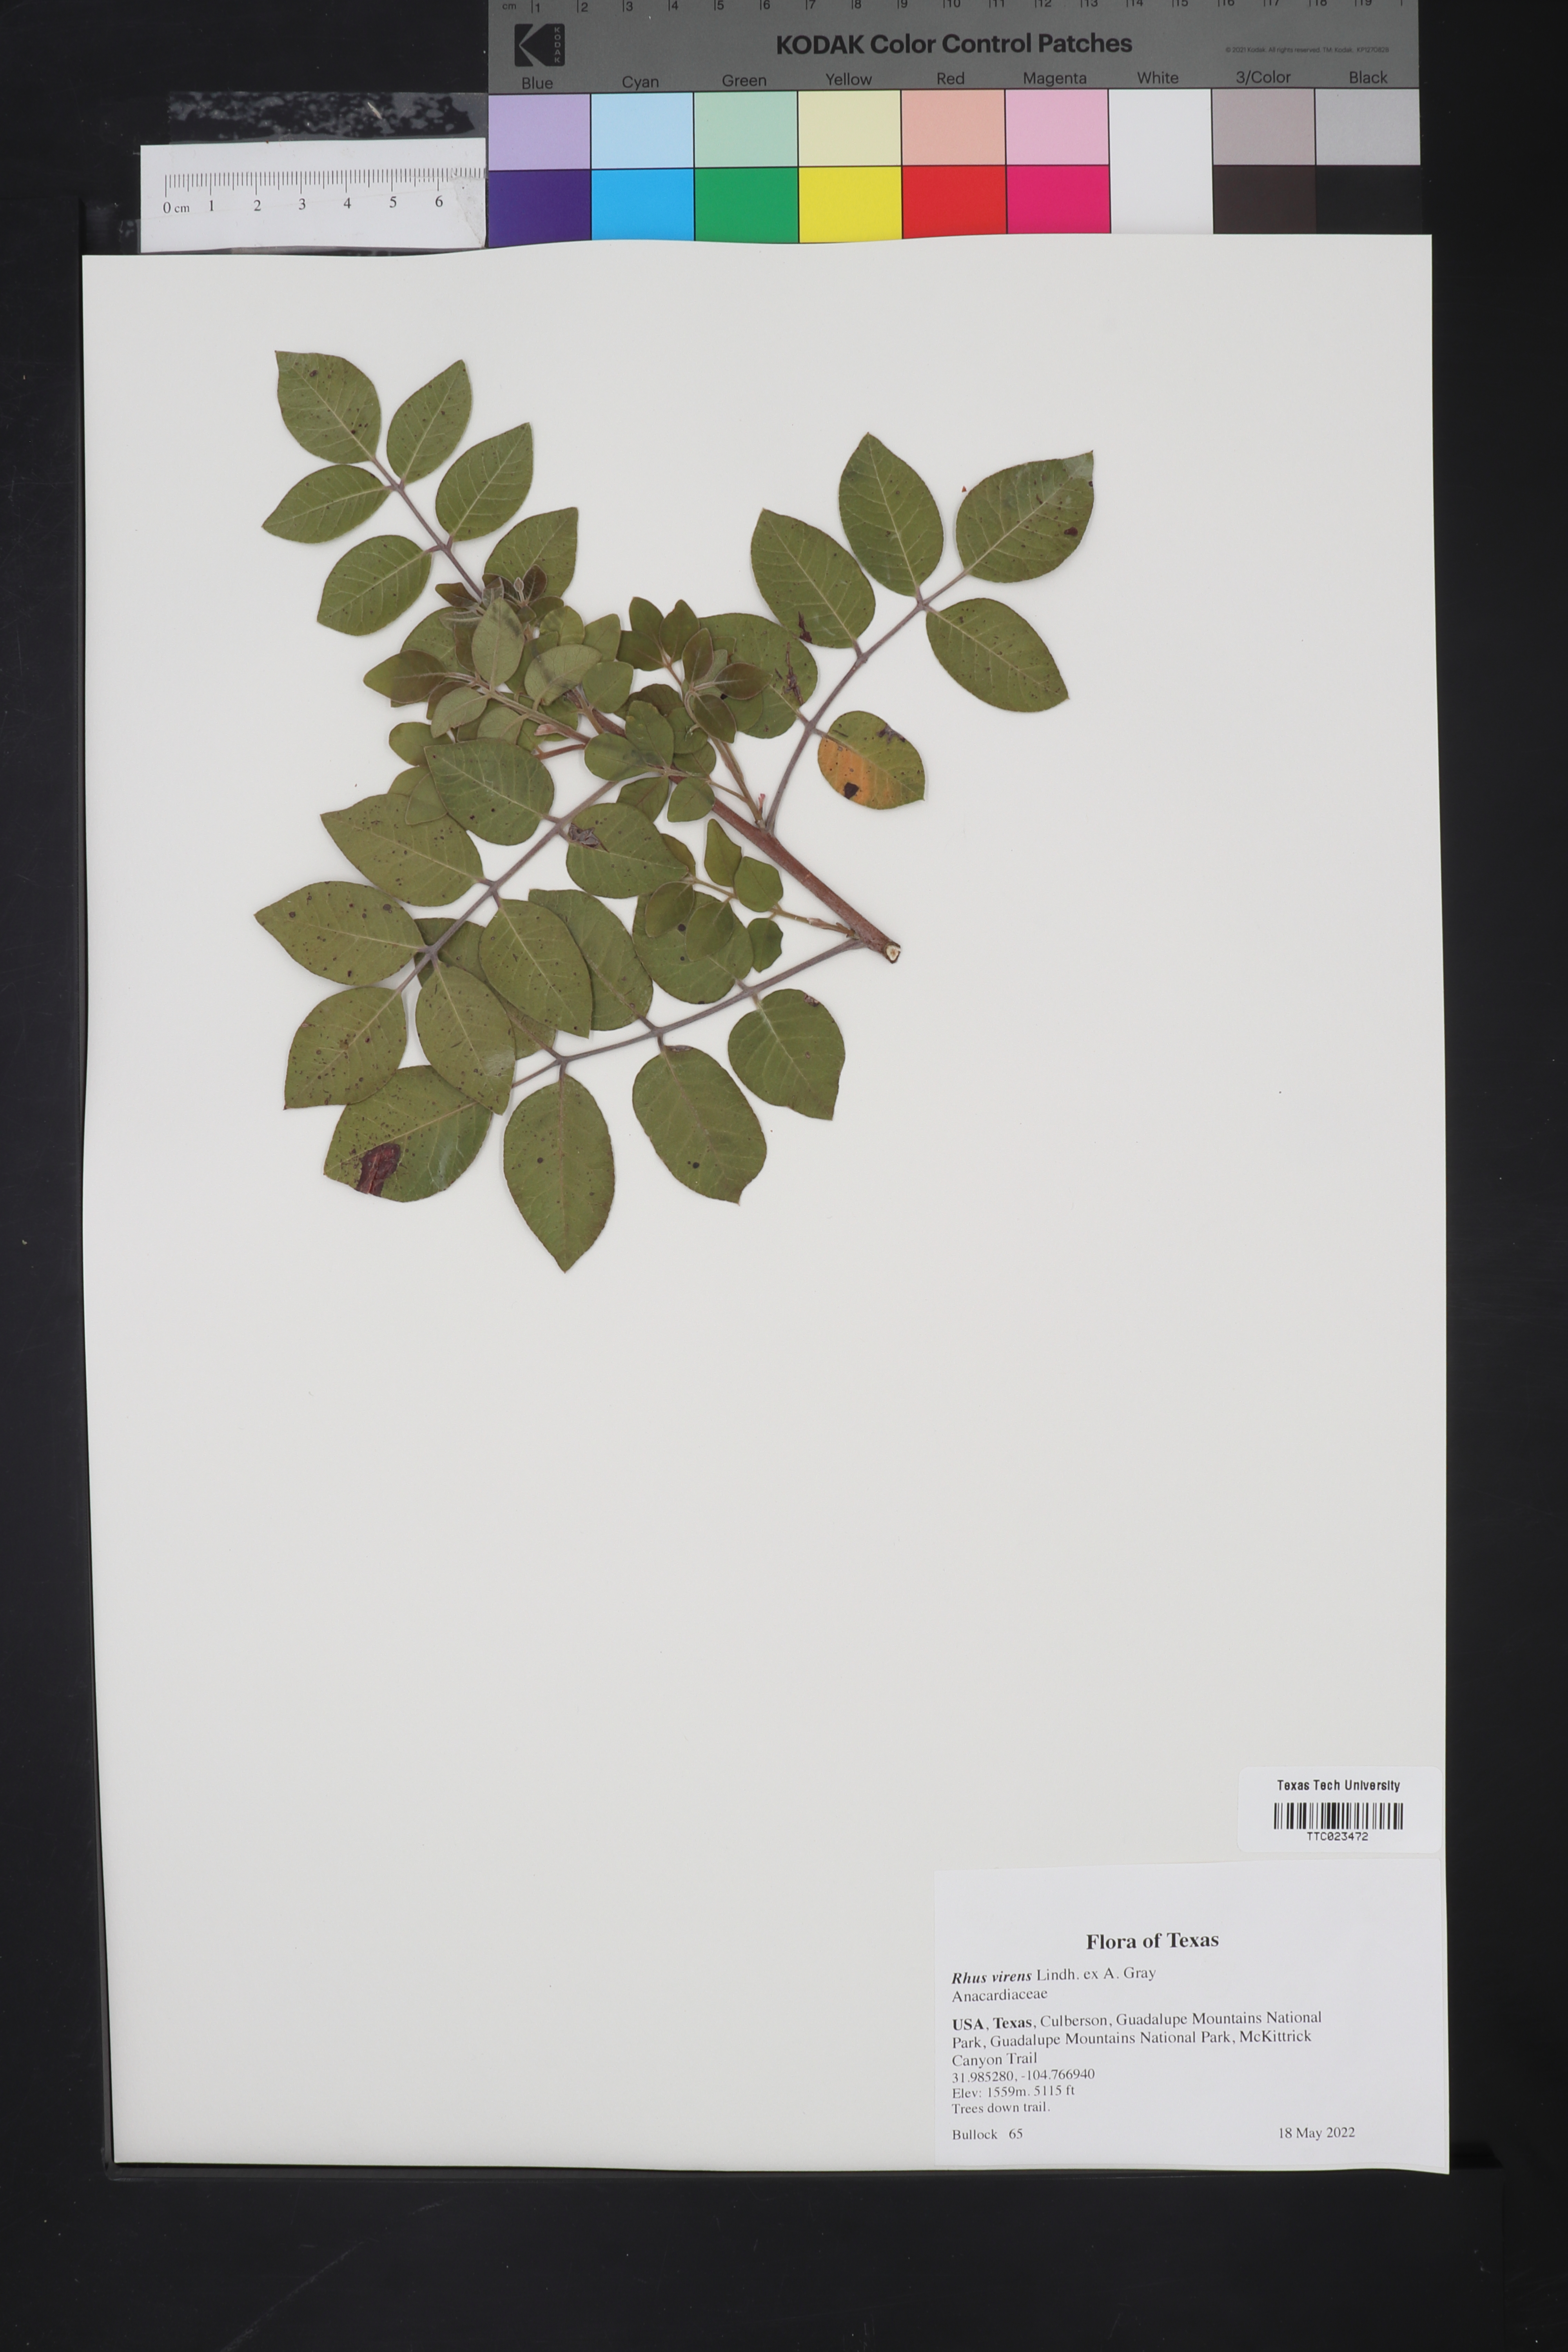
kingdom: Plantae
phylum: Tracheophyta
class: Magnoliopsida
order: Sapindales
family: Anacardiaceae
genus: Rhus
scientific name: Rhus virens
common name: Evergreen sumac
